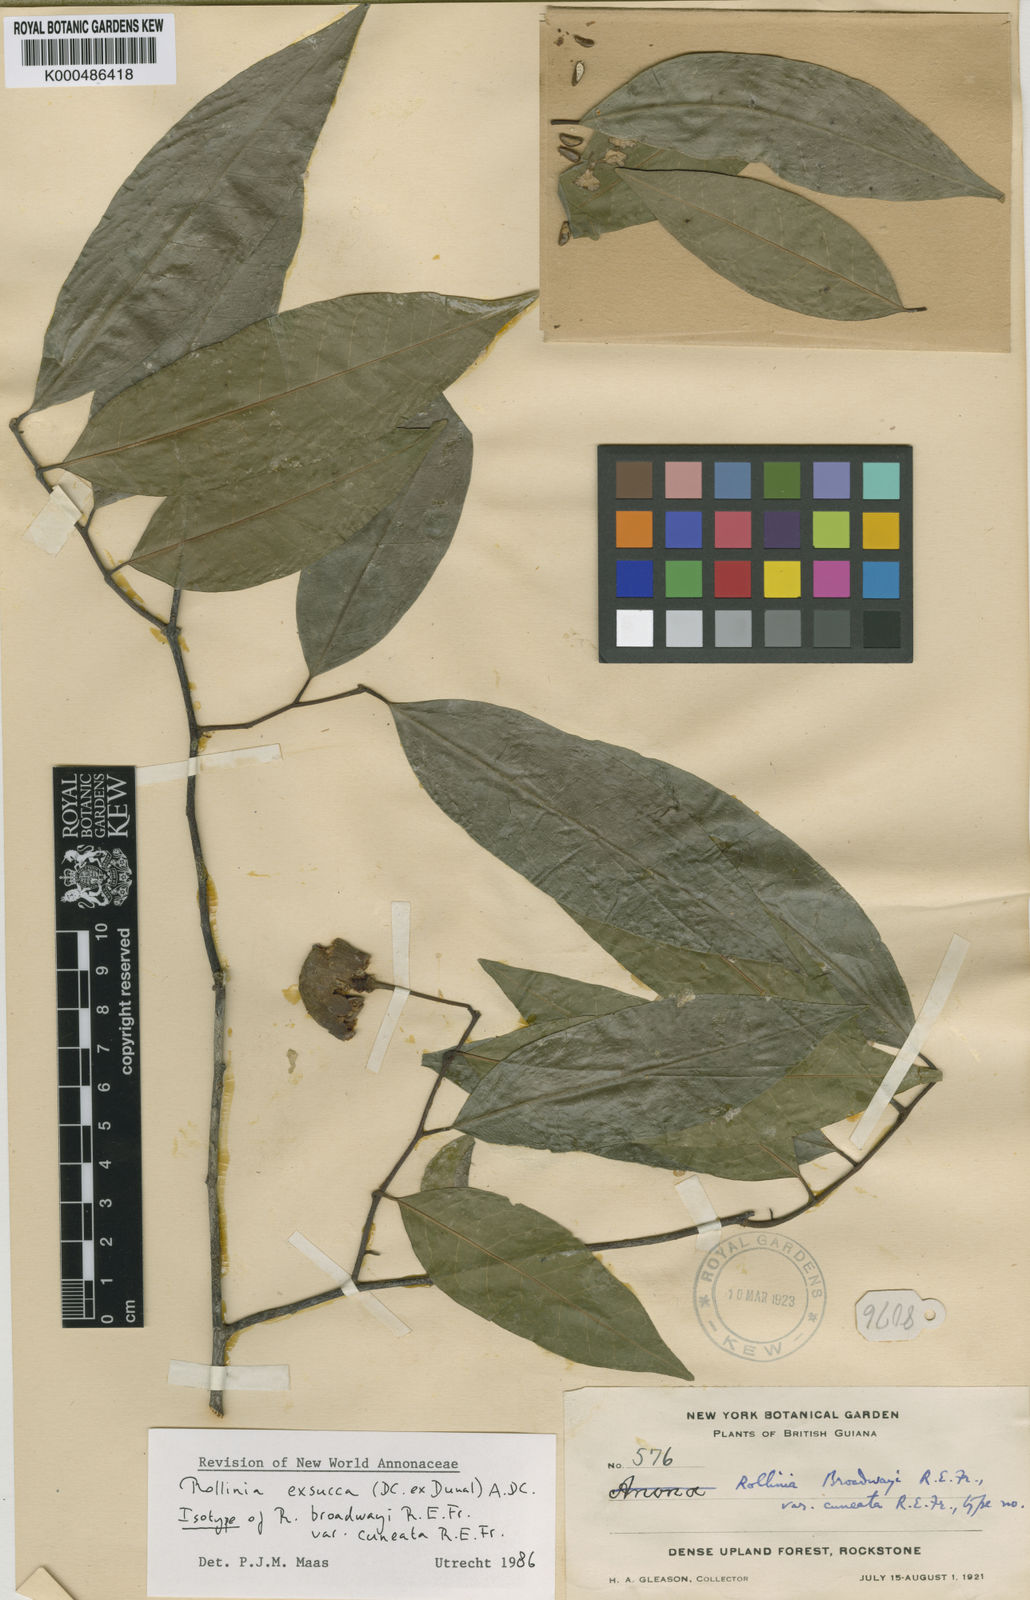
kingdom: Plantae
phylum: Tracheophyta
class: Magnoliopsida
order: Magnoliales
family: Annonaceae
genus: Annona
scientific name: Annona
